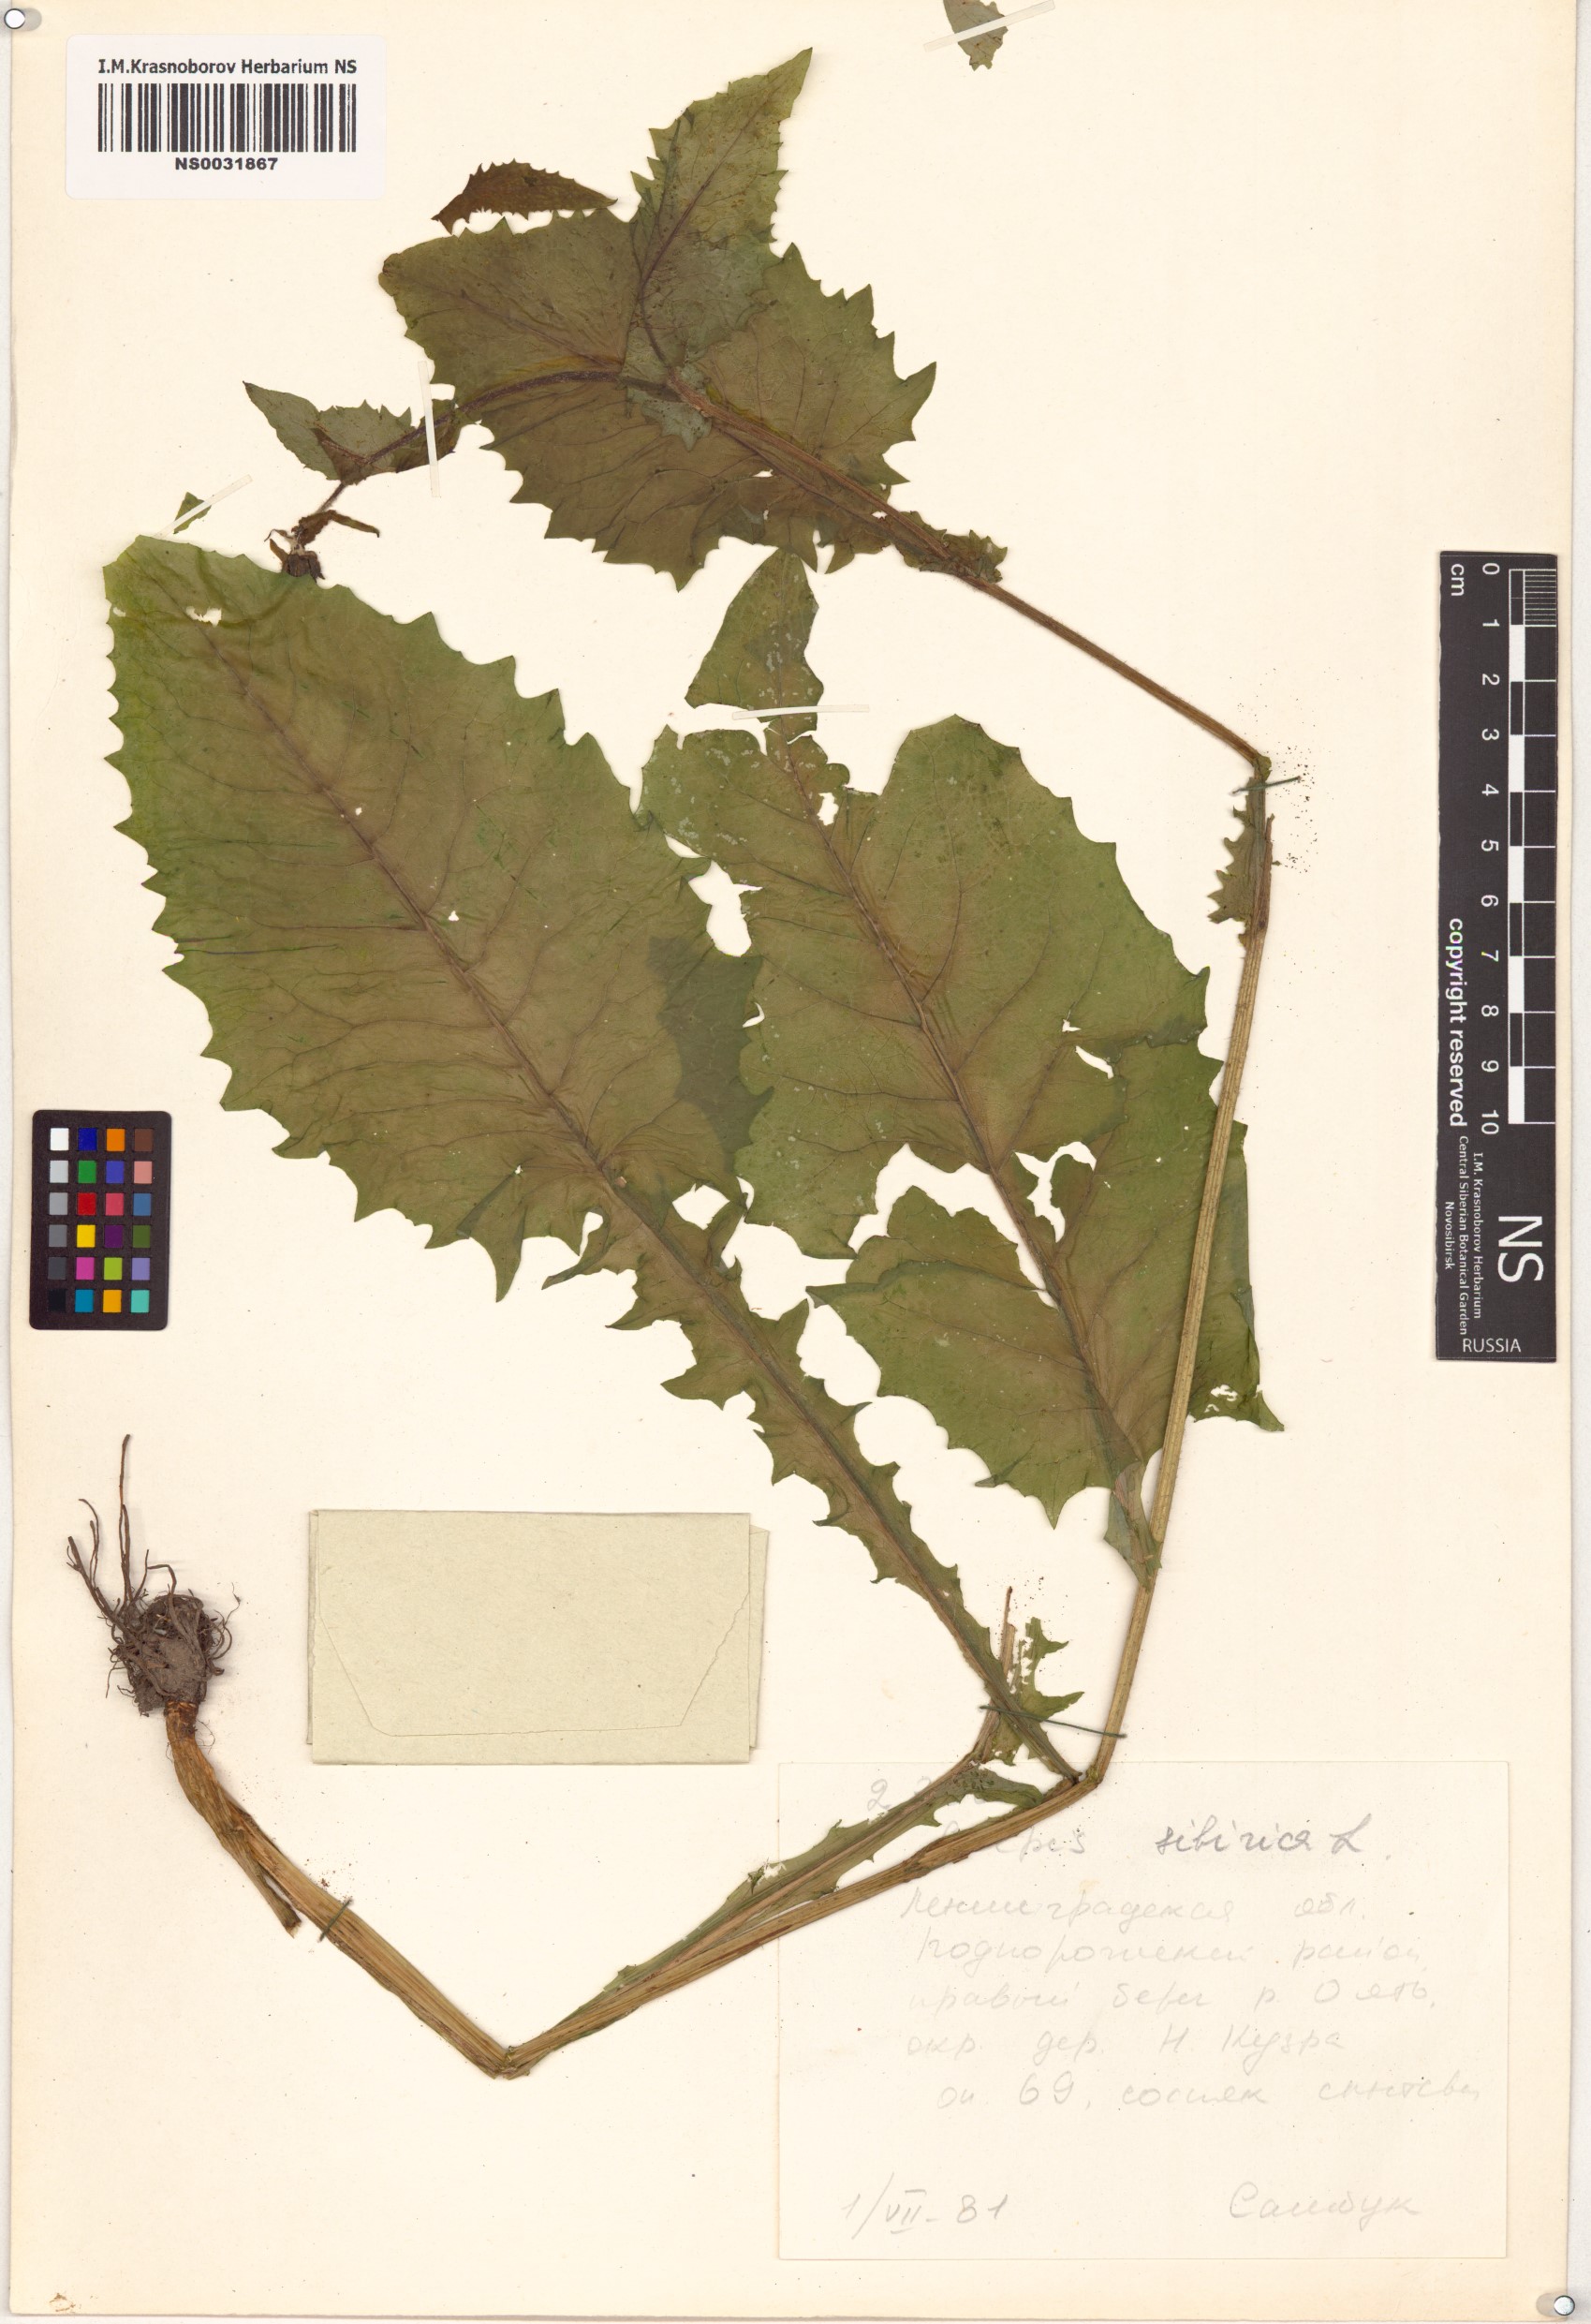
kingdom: Plantae
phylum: Tracheophyta
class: Magnoliopsida
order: Asterales
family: Asteraceae
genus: Crepis
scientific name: Crepis sibirica
